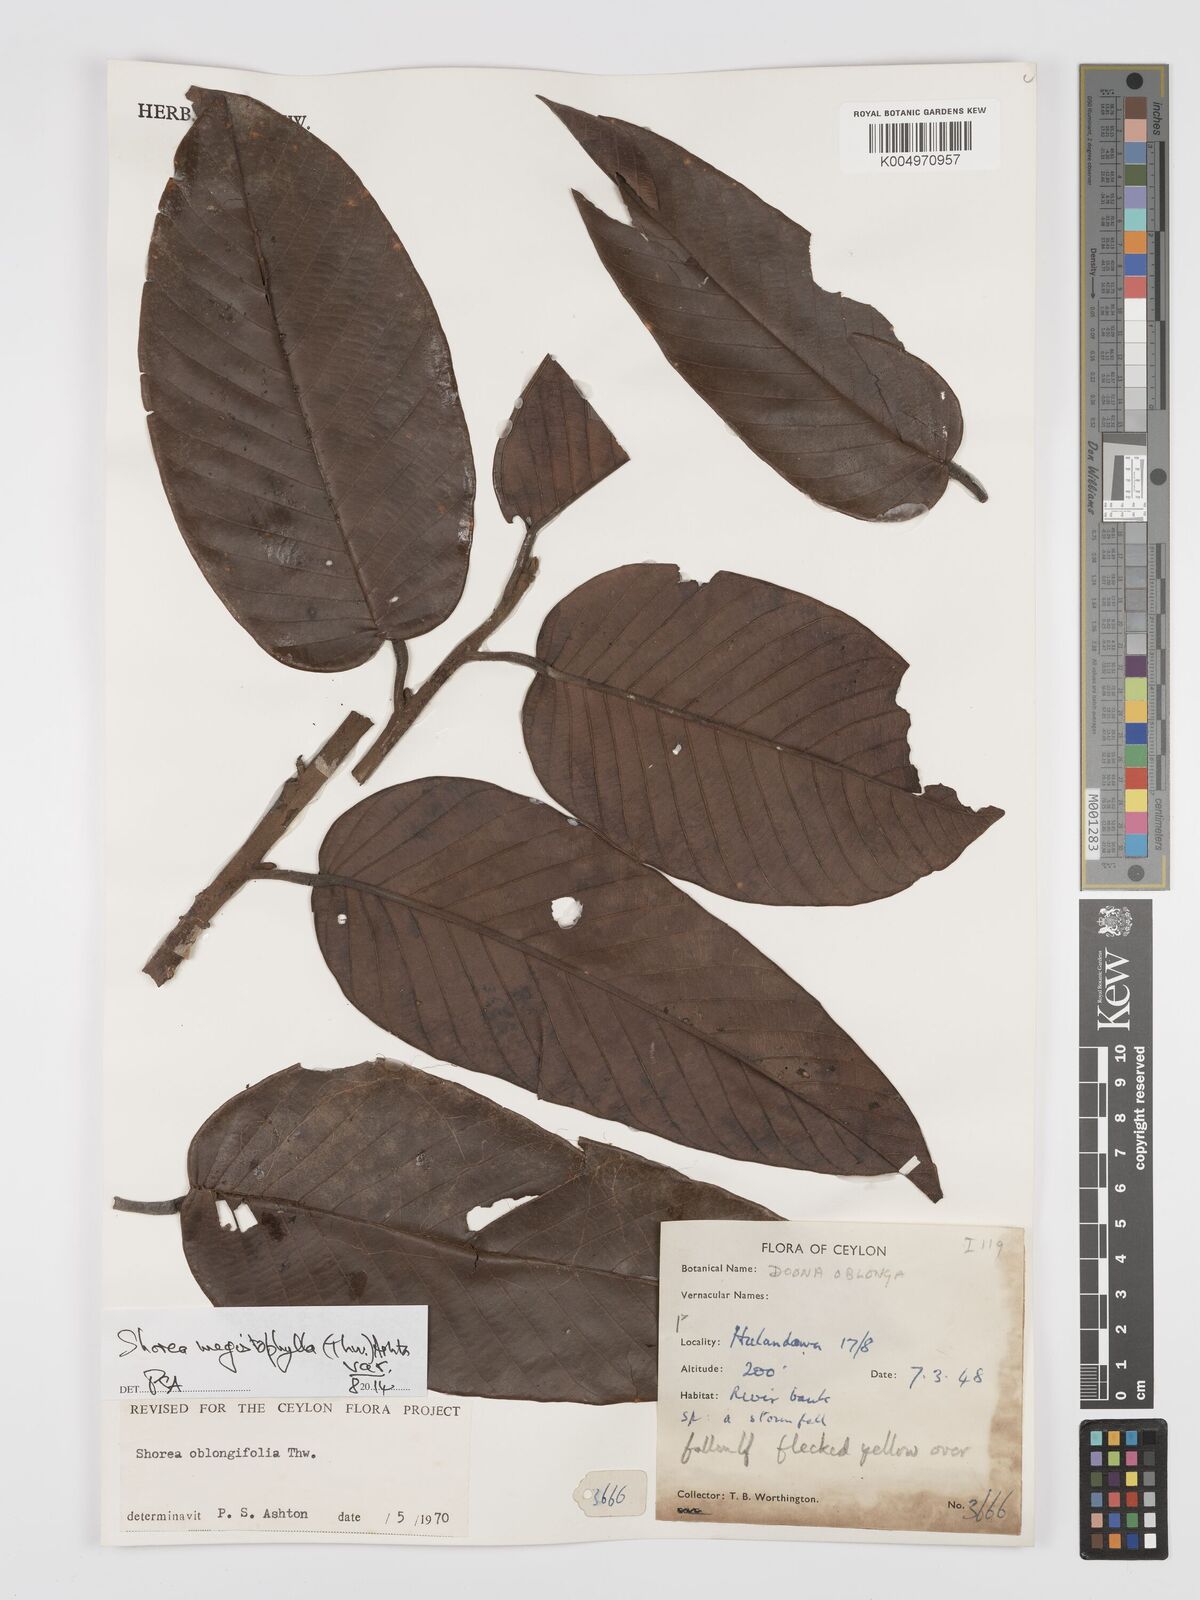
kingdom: Plantae
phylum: Tracheophyta
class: Magnoliopsida
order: Malvales
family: Dipterocarpaceae
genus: Doona
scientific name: Doona macrophylla
